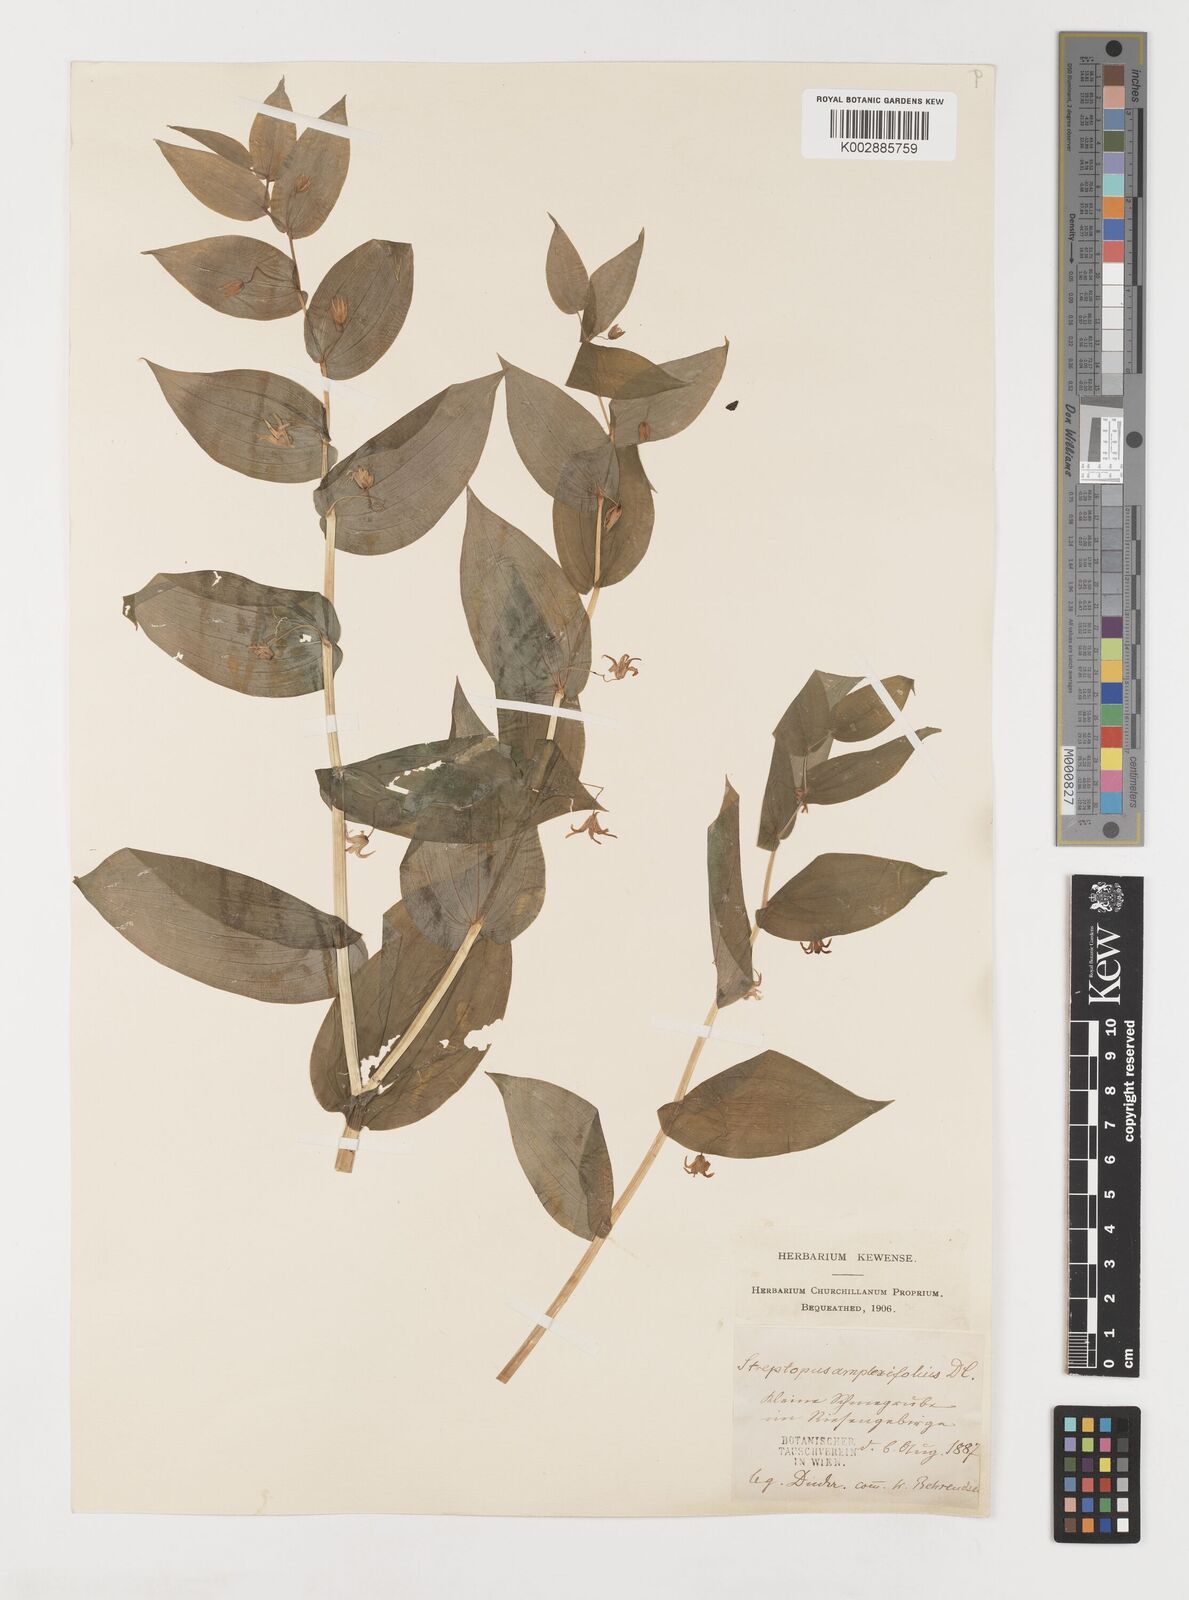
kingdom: Plantae
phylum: Tracheophyta
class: Liliopsida
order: Liliales
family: Liliaceae
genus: Streptopus
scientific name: Streptopus amplexifolius
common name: Clasp twisted stalk
